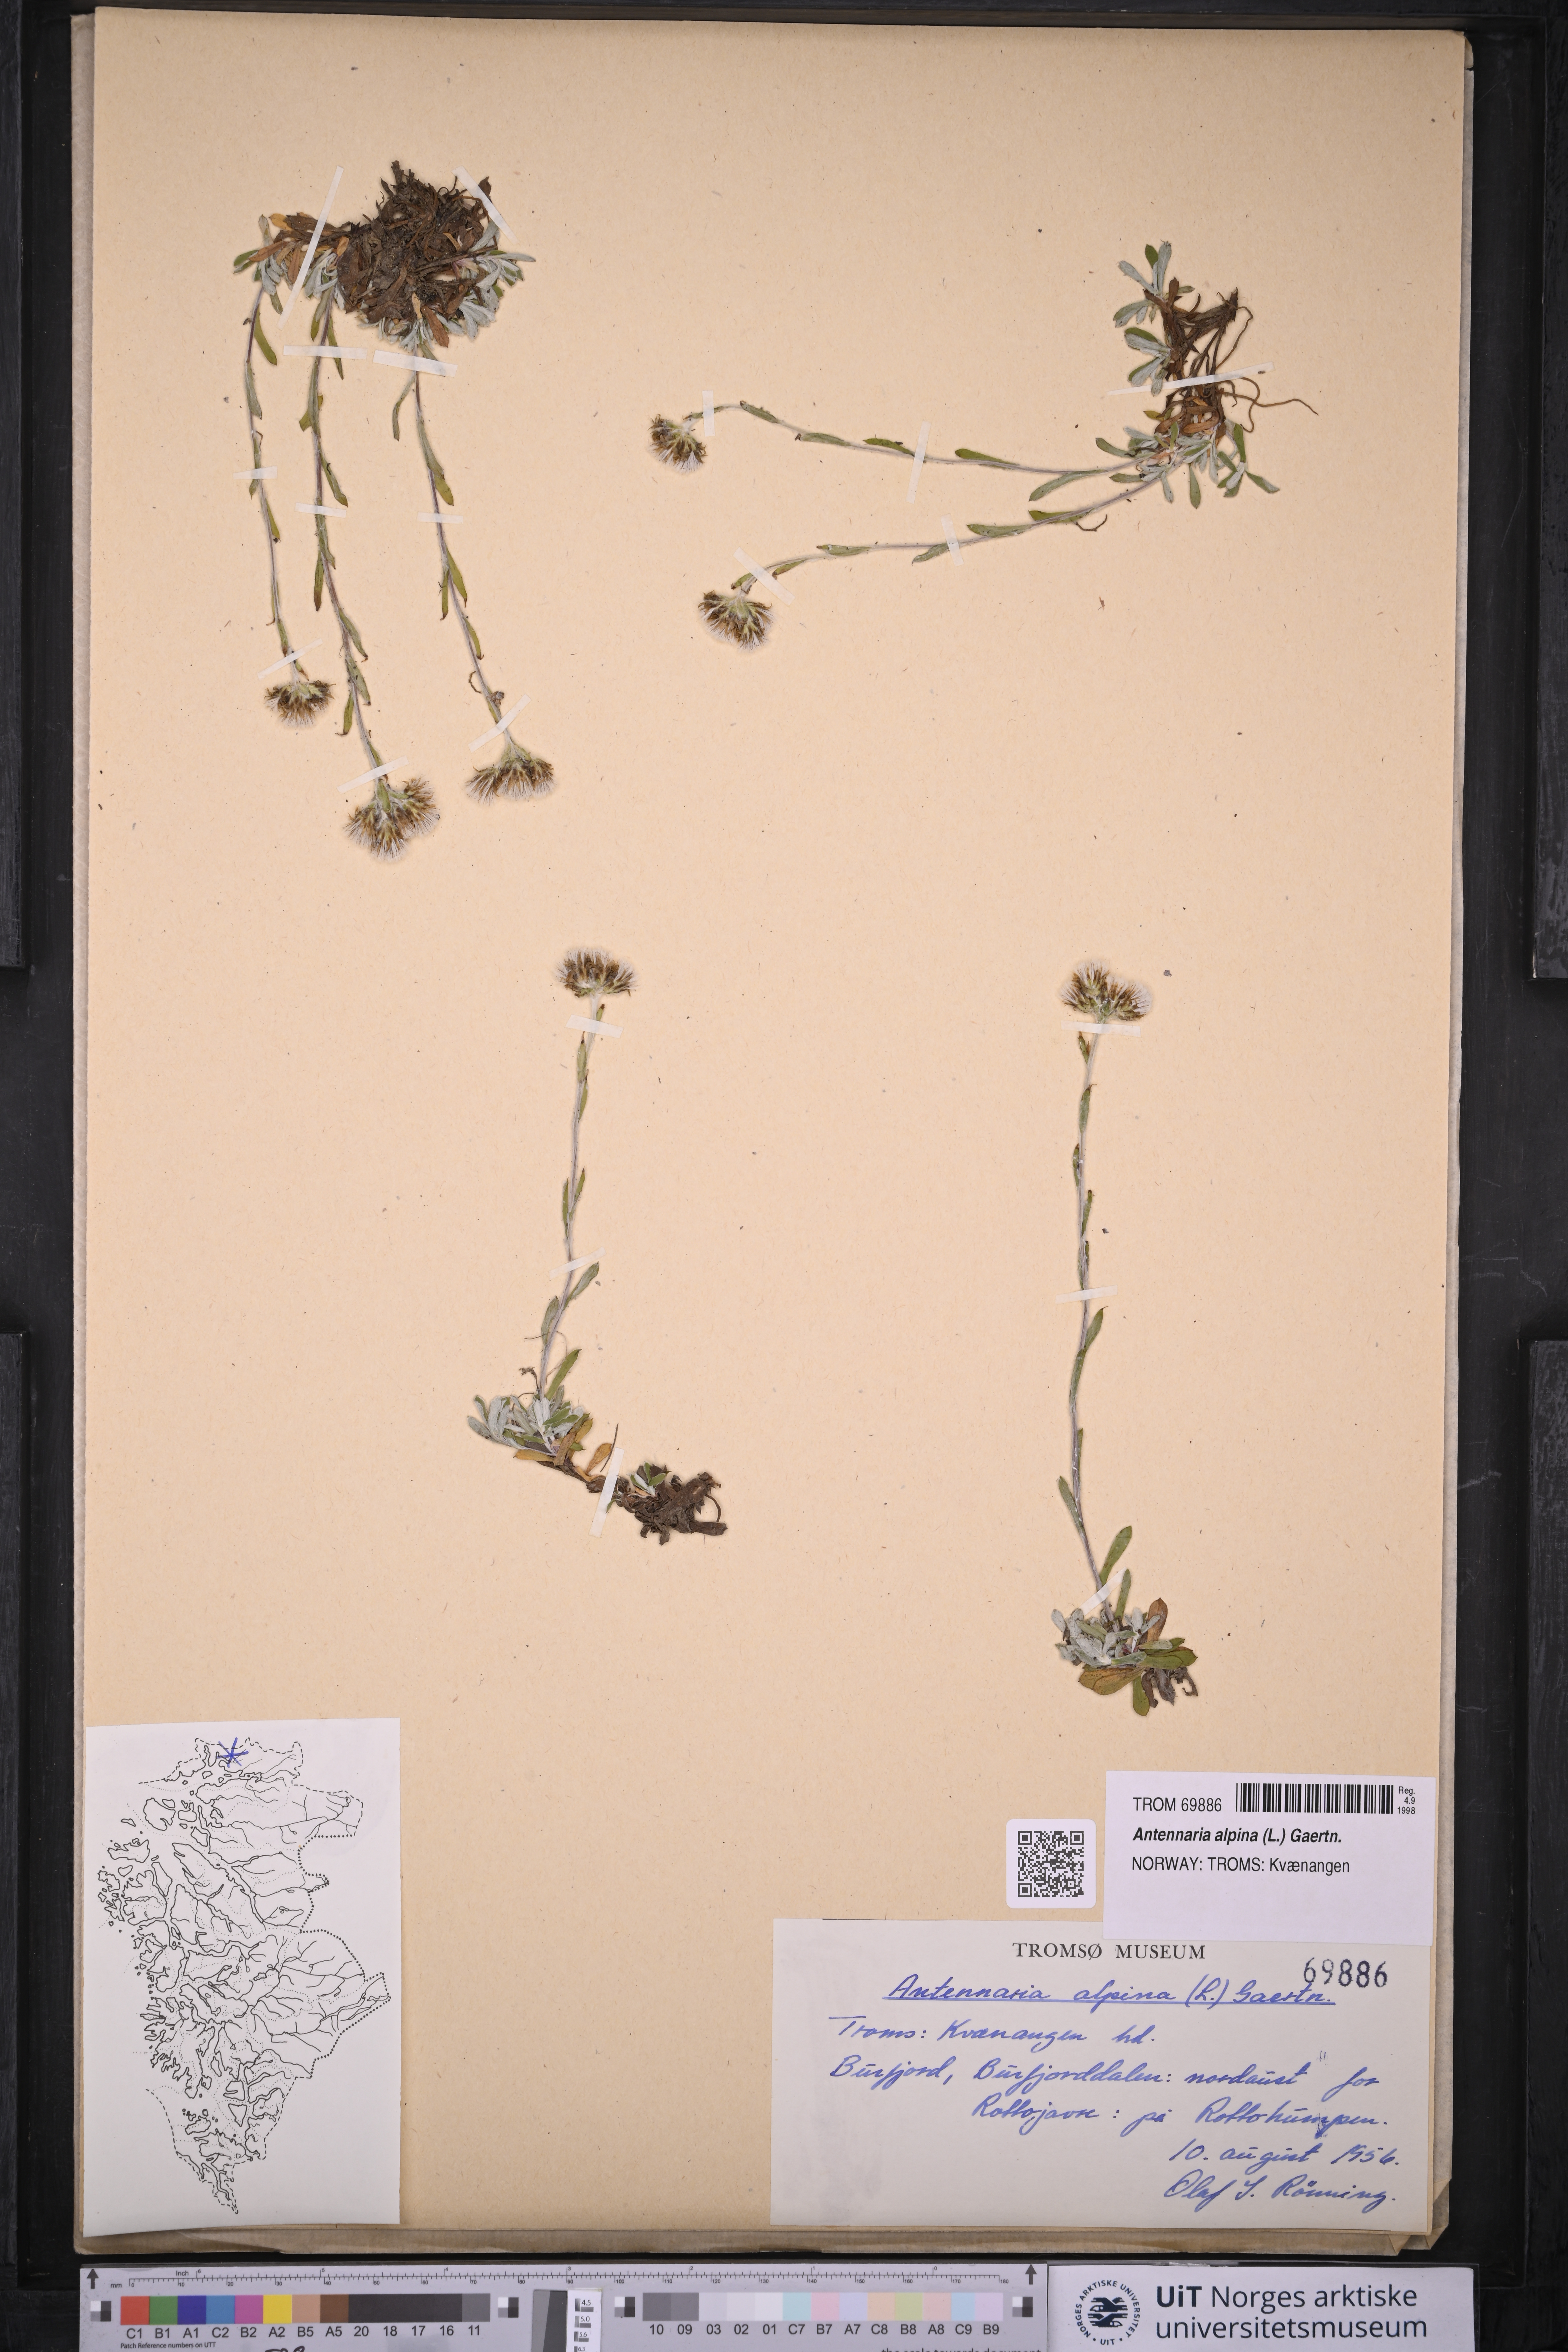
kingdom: Plantae
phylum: Tracheophyta
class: Magnoliopsida
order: Asterales
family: Asteraceae
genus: Antennaria
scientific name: Antennaria alpina
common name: Alpine pussytoes
